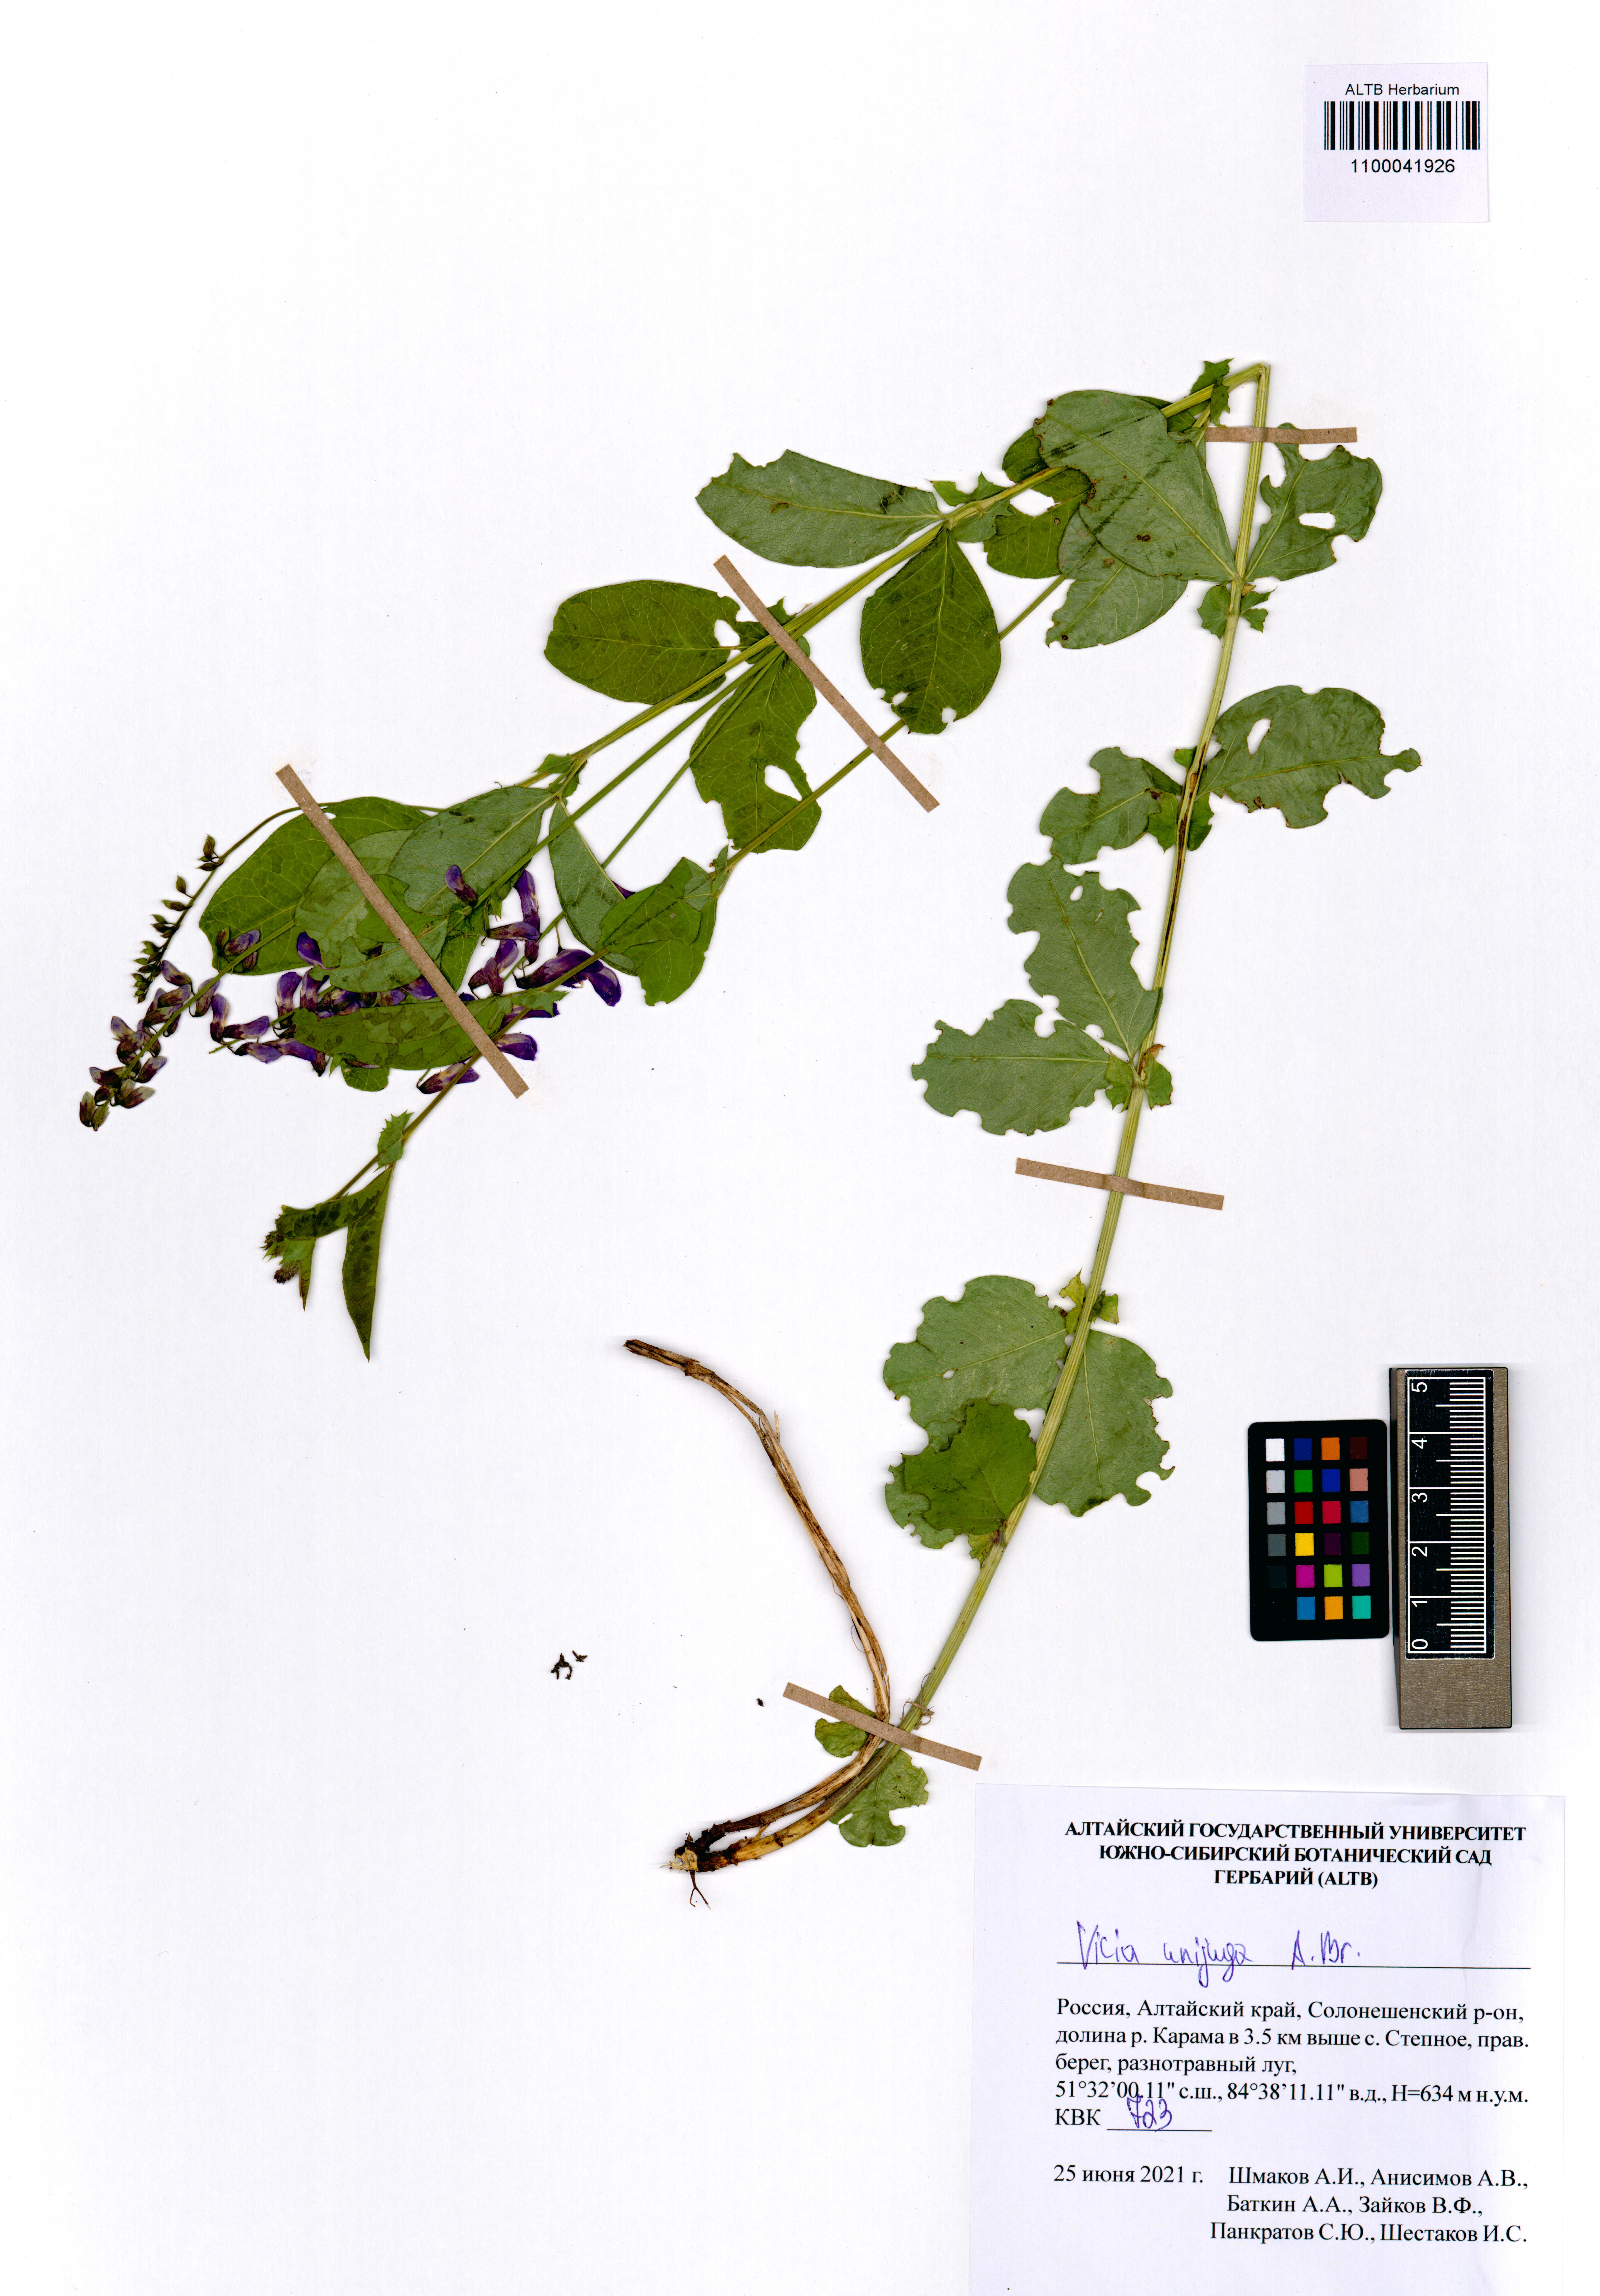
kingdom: Plantae
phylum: Tracheophyta
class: Magnoliopsida
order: Fabales
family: Fabaceae
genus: Vicia
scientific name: Vicia unijuga
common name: Two-leaf vetch
